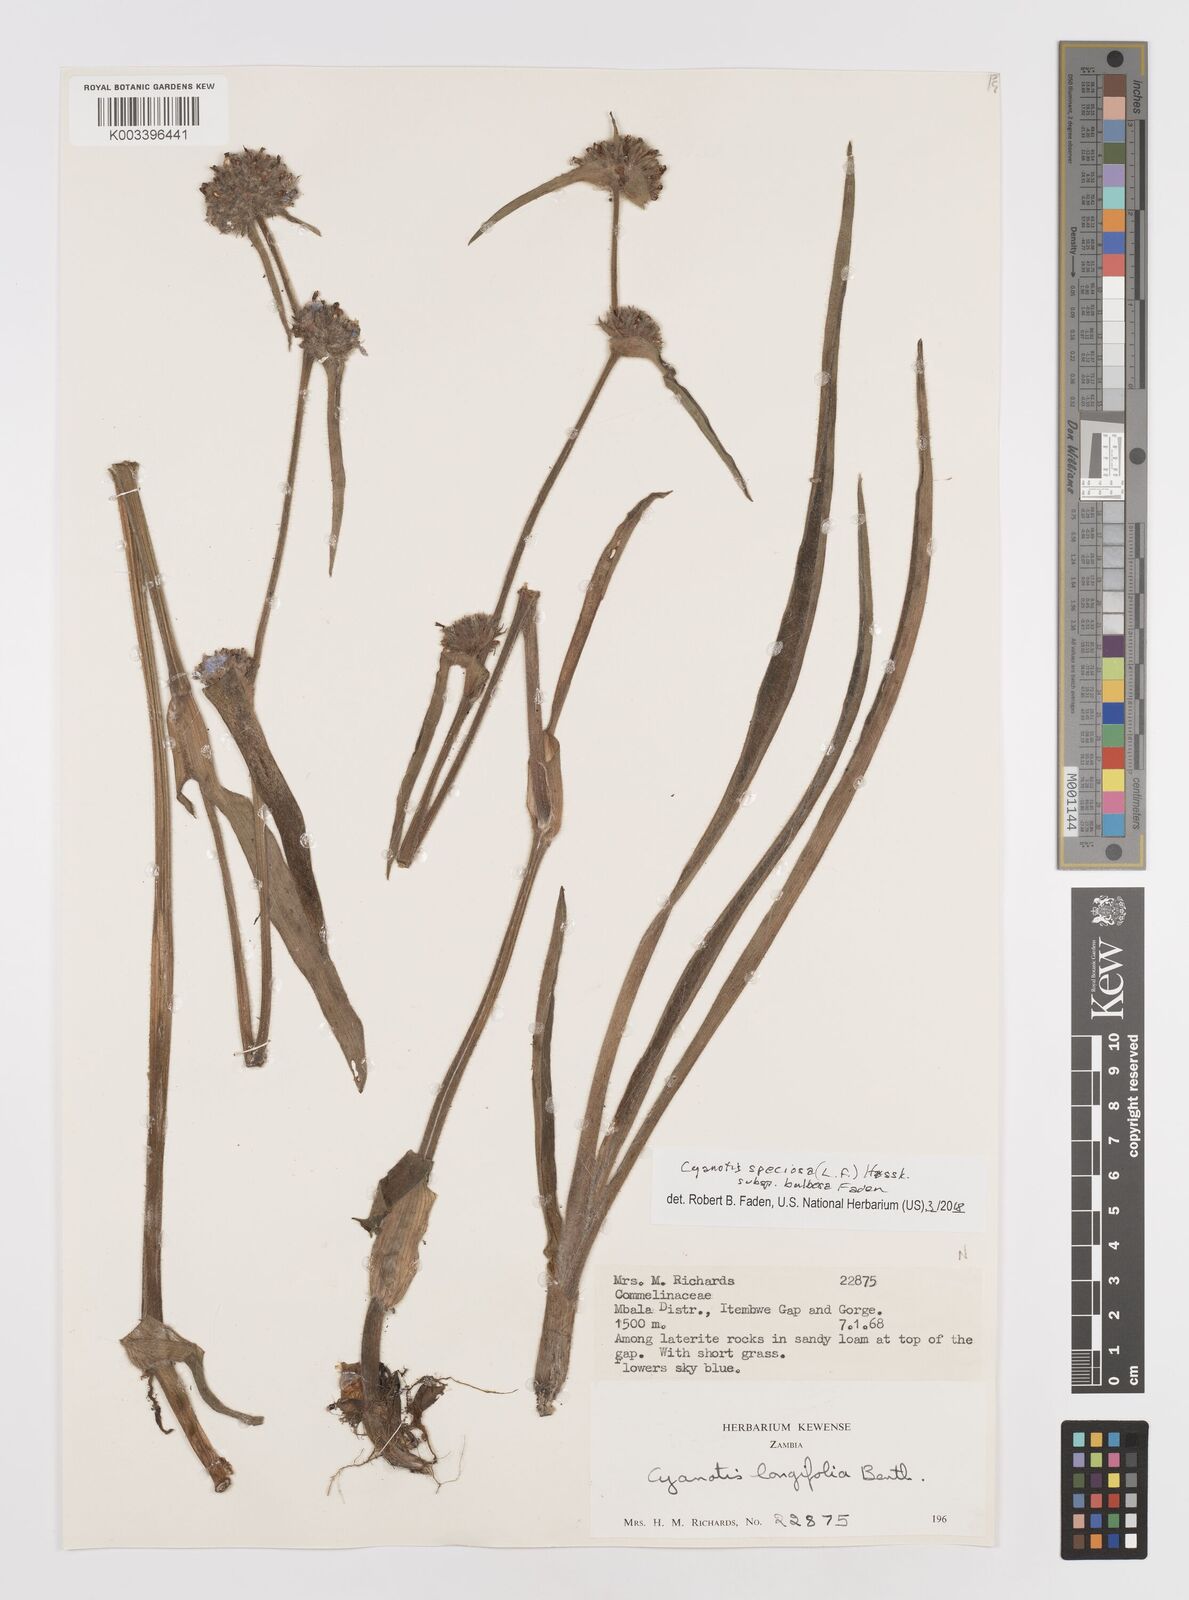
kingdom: Plantae
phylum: Tracheophyta
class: Liliopsida
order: Commelinales
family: Commelinaceae
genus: Cyanotis
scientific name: Cyanotis speciosa
